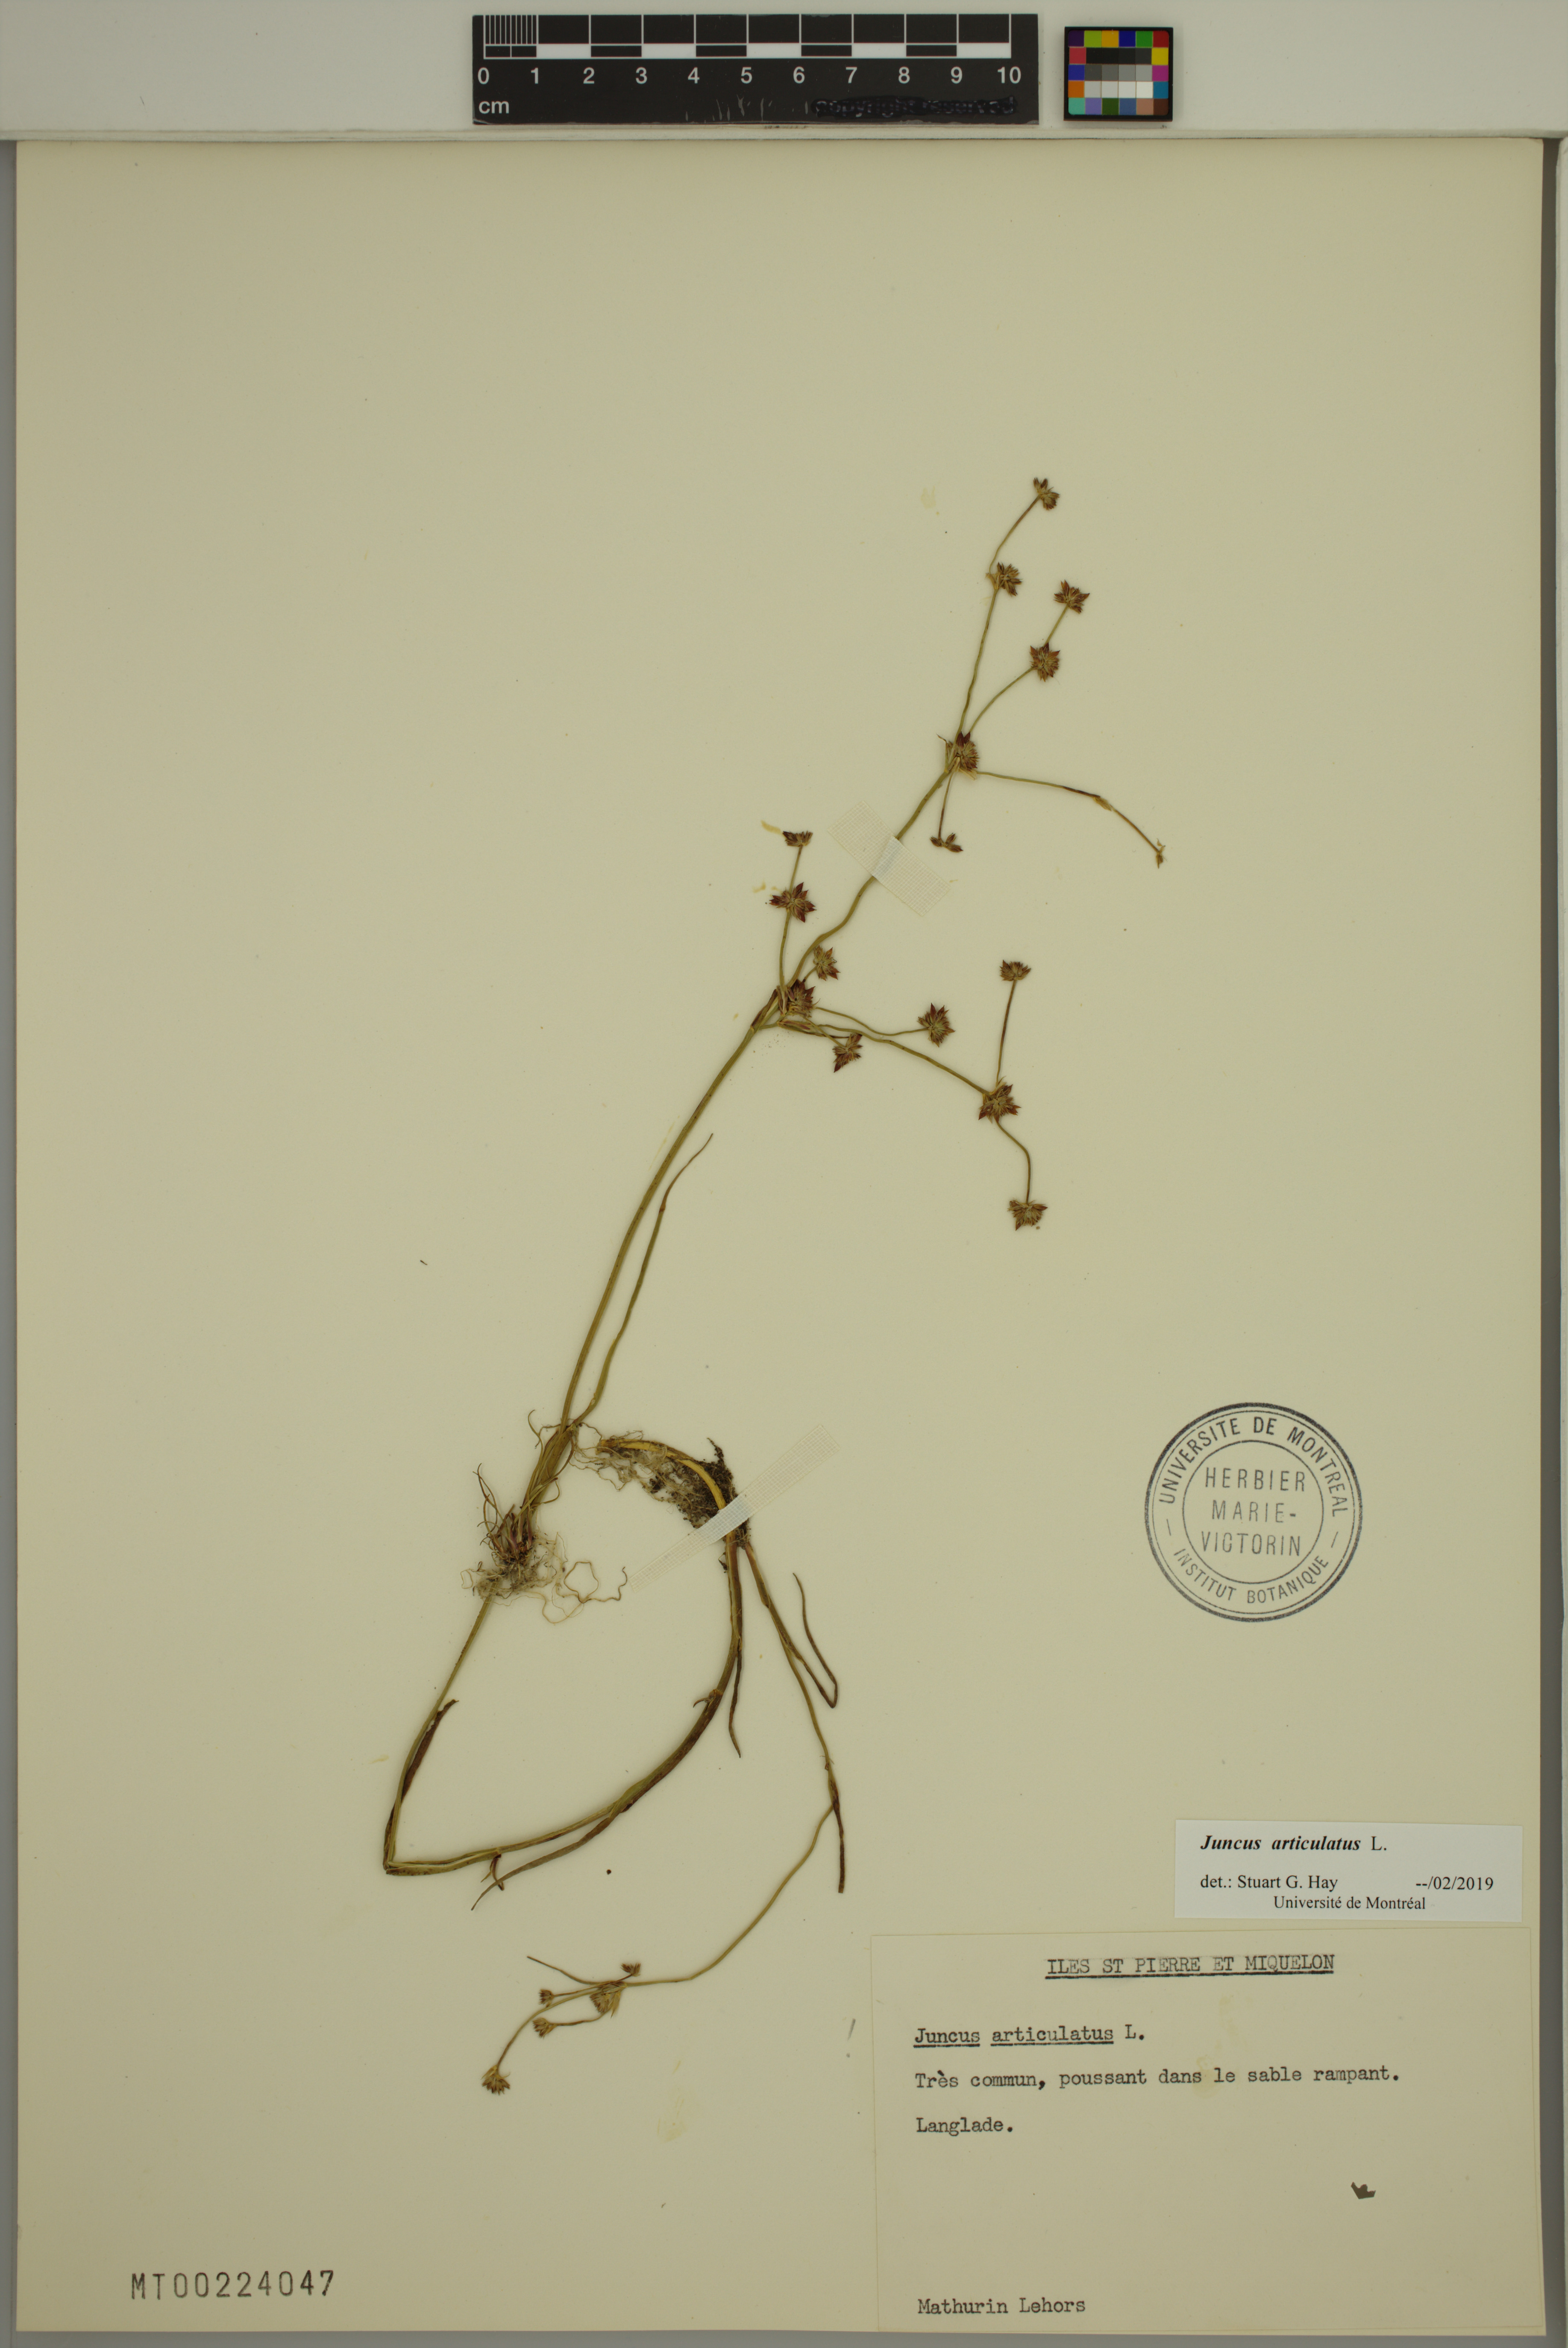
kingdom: Plantae
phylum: Tracheophyta
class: Liliopsida
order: Poales
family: Juncaceae
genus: Juncus
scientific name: Juncus articulatus
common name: Jointed rush
